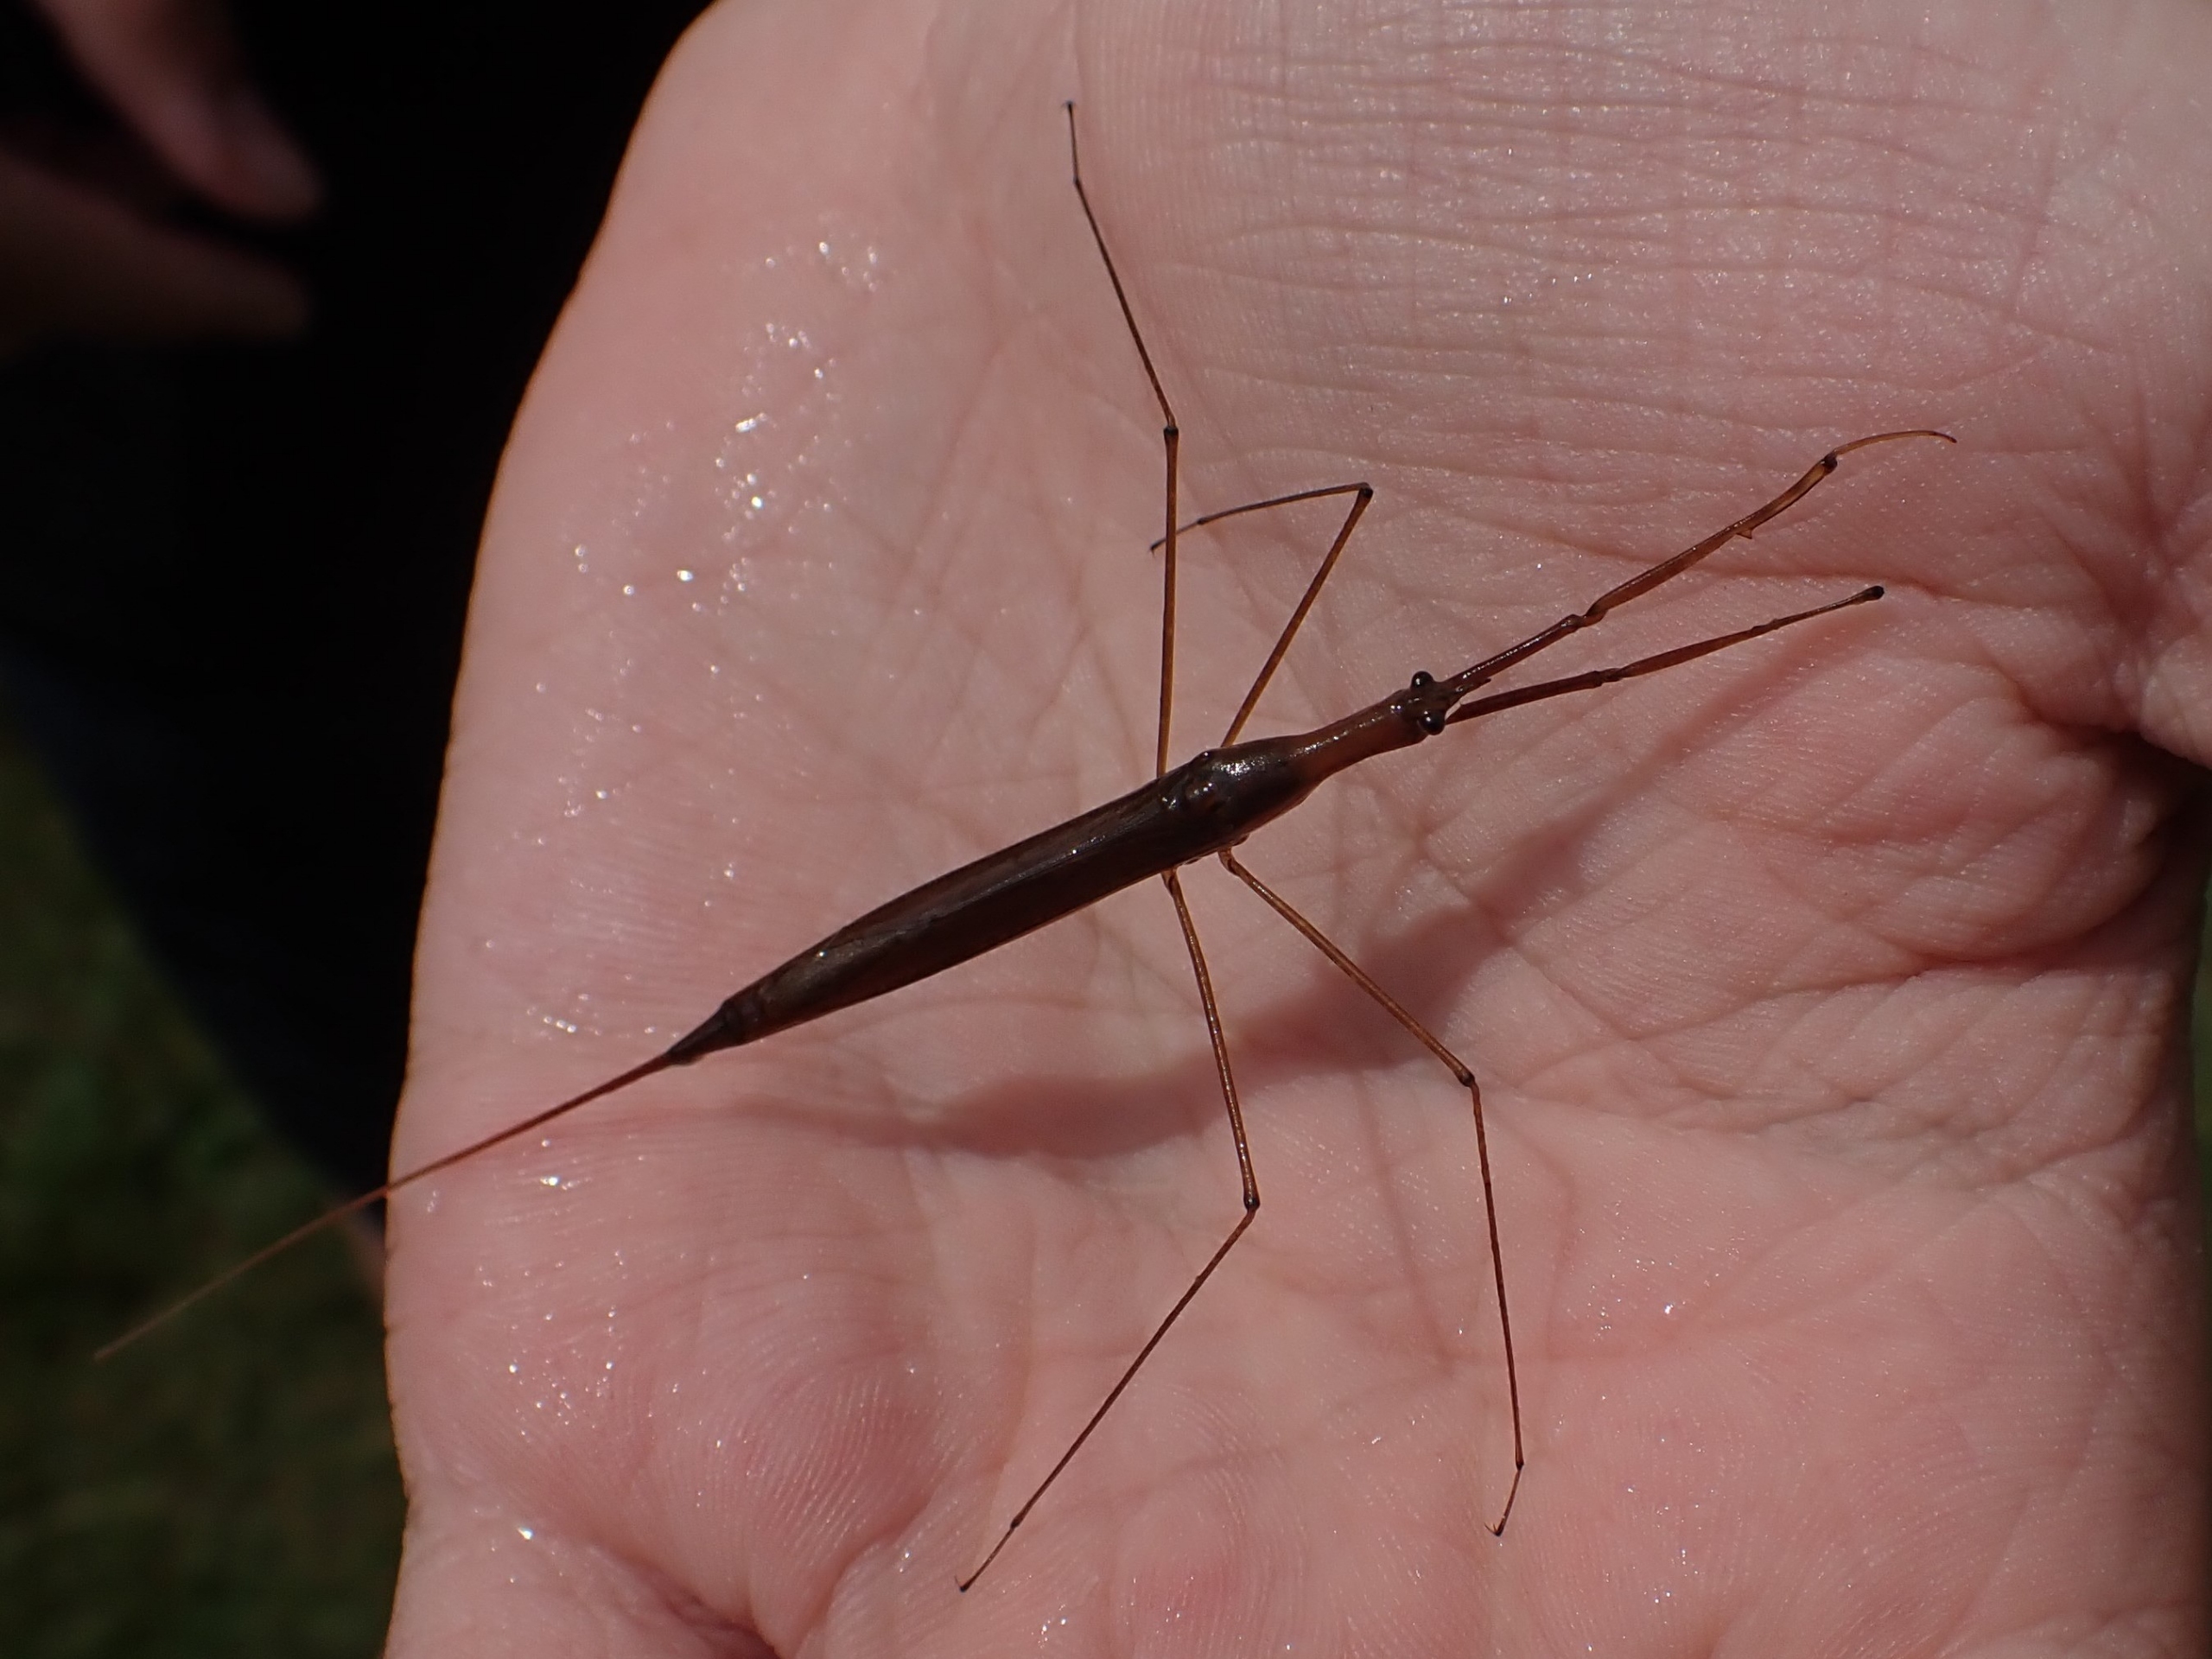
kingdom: Animalia
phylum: Arthropoda
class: Insecta
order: Hemiptera
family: Nepidae
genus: Ranatra
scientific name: Ranatra linearis
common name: Stavtæge
